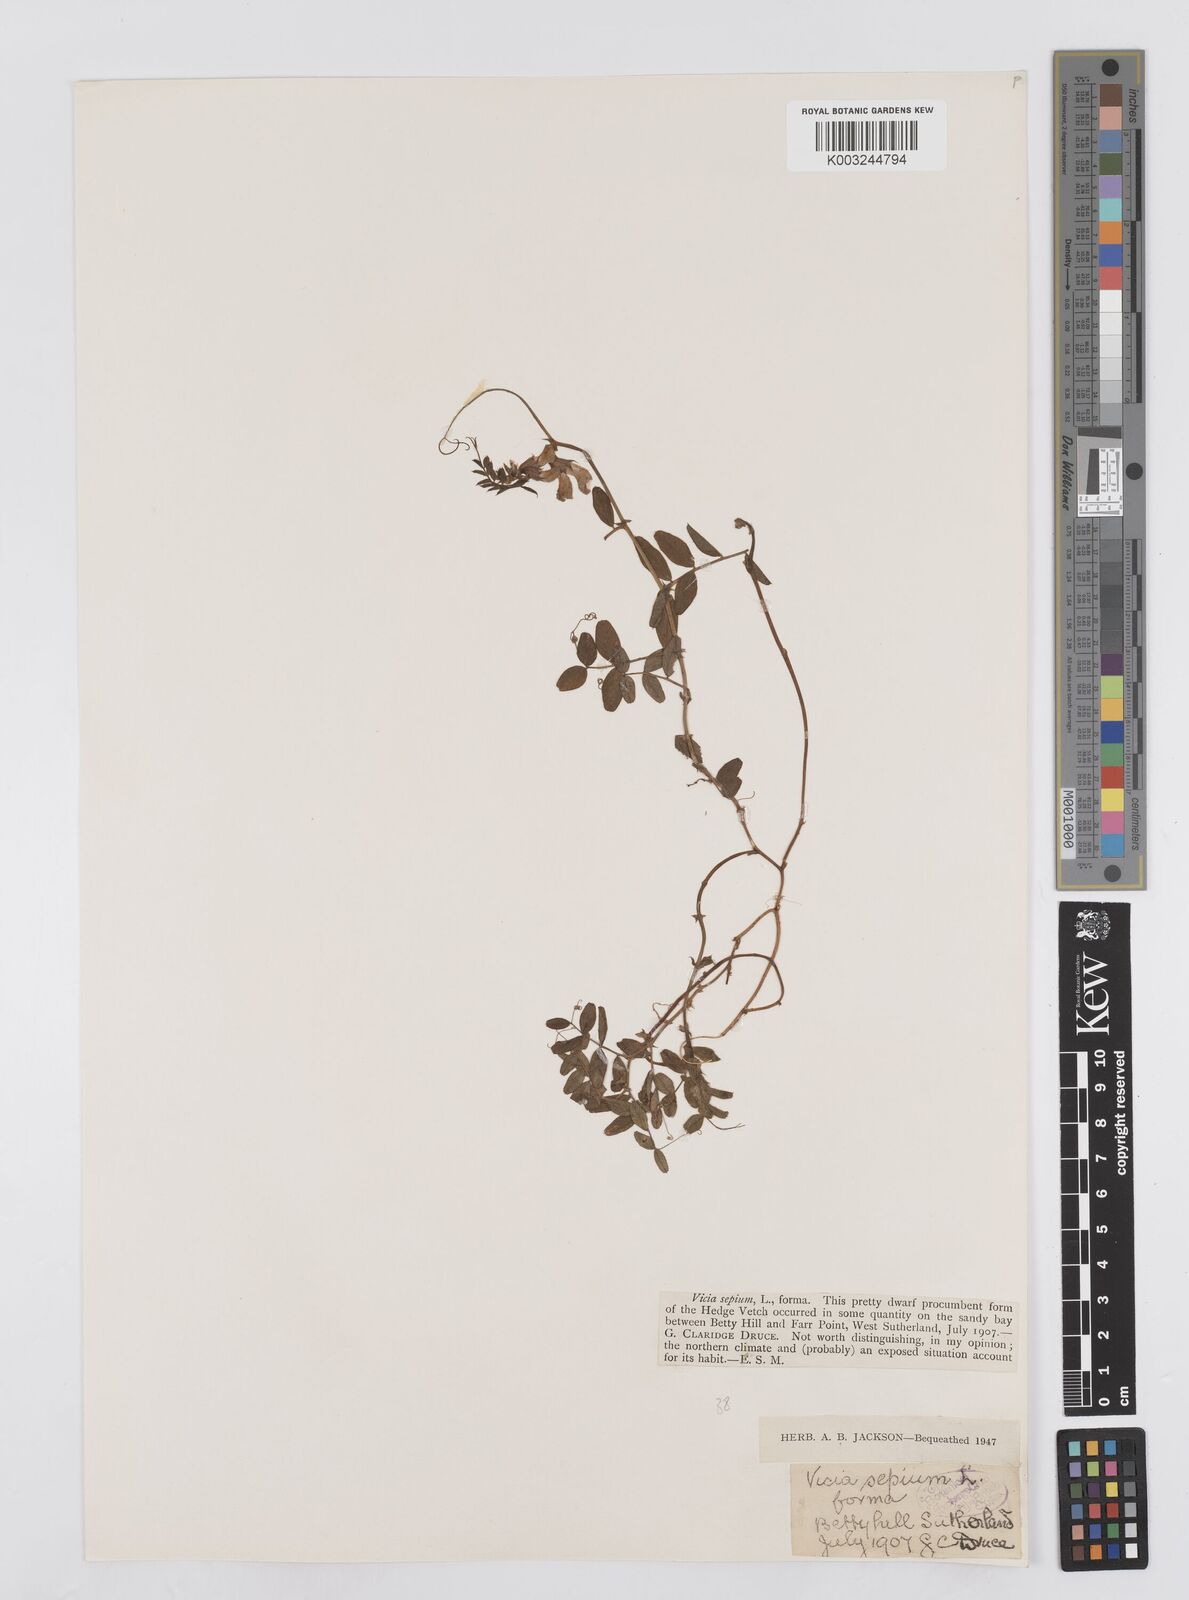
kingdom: Plantae
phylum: Tracheophyta
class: Magnoliopsida
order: Fabales
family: Fabaceae
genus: Vicia
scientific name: Vicia sepium
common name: Bush vetch
